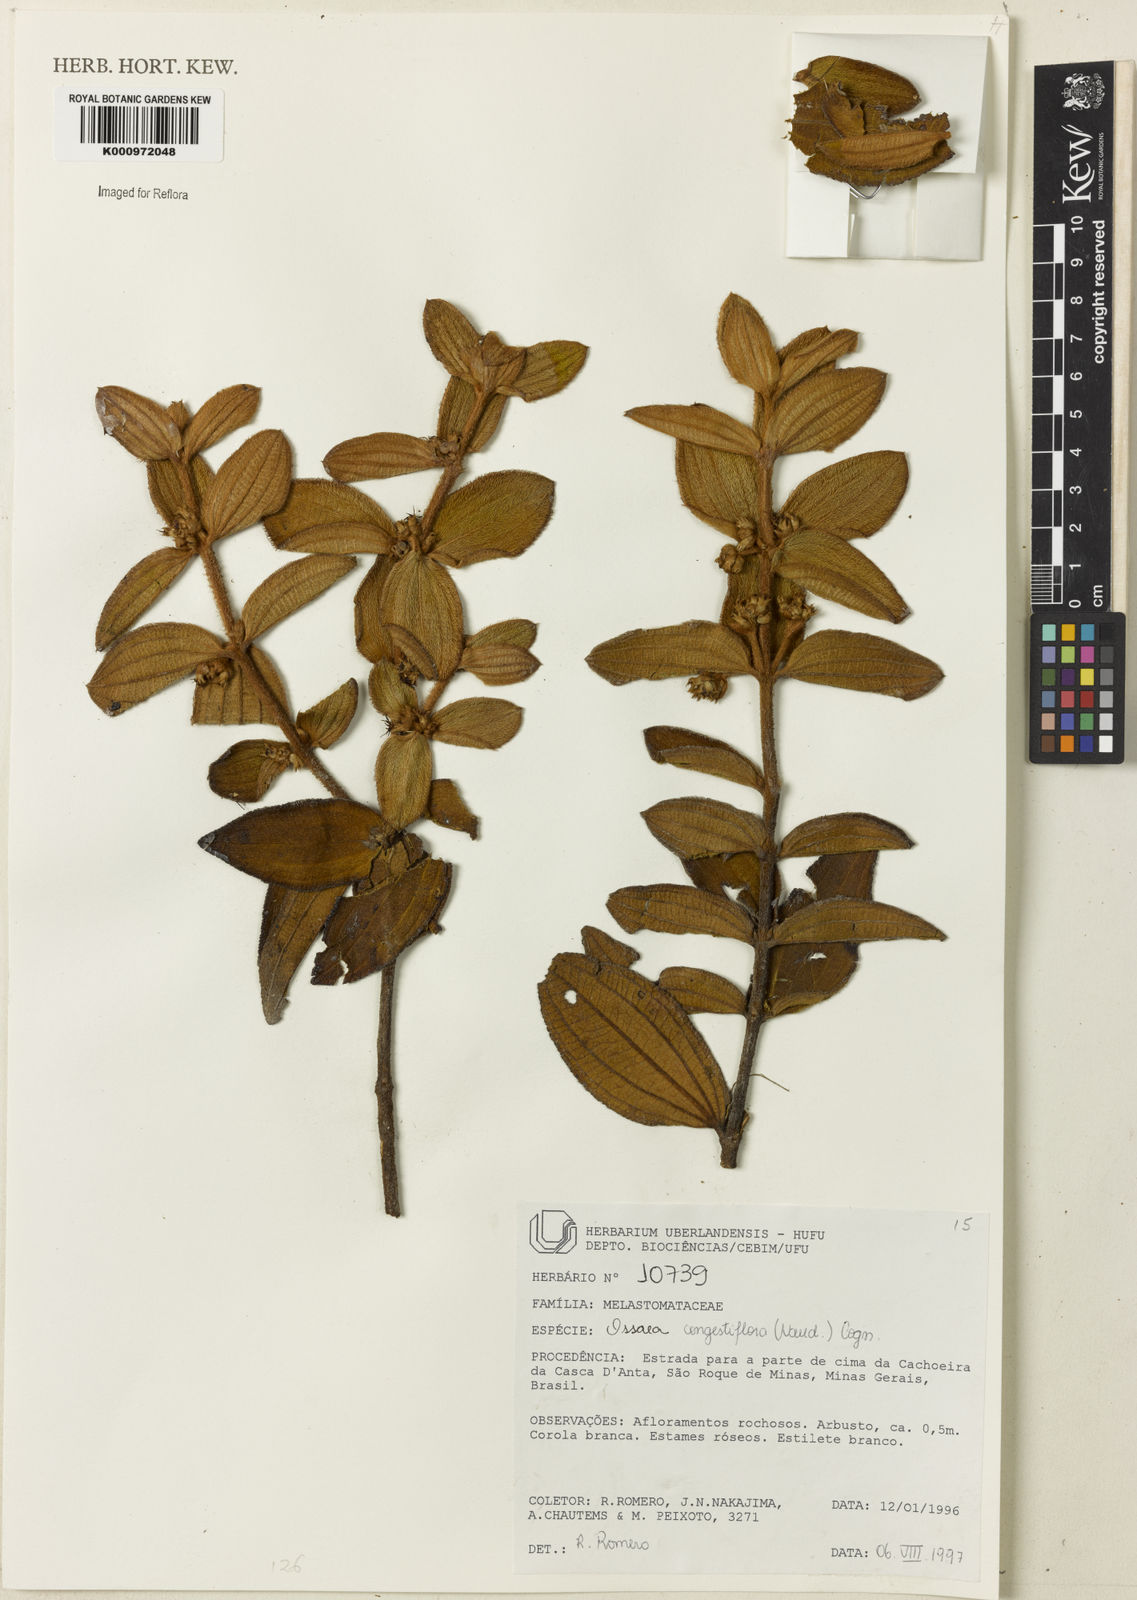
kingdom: Plantae
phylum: Tracheophyta
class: Magnoliopsida
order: Myrtales
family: Melastomataceae
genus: Miconia
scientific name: Miconia leacongestiflora
